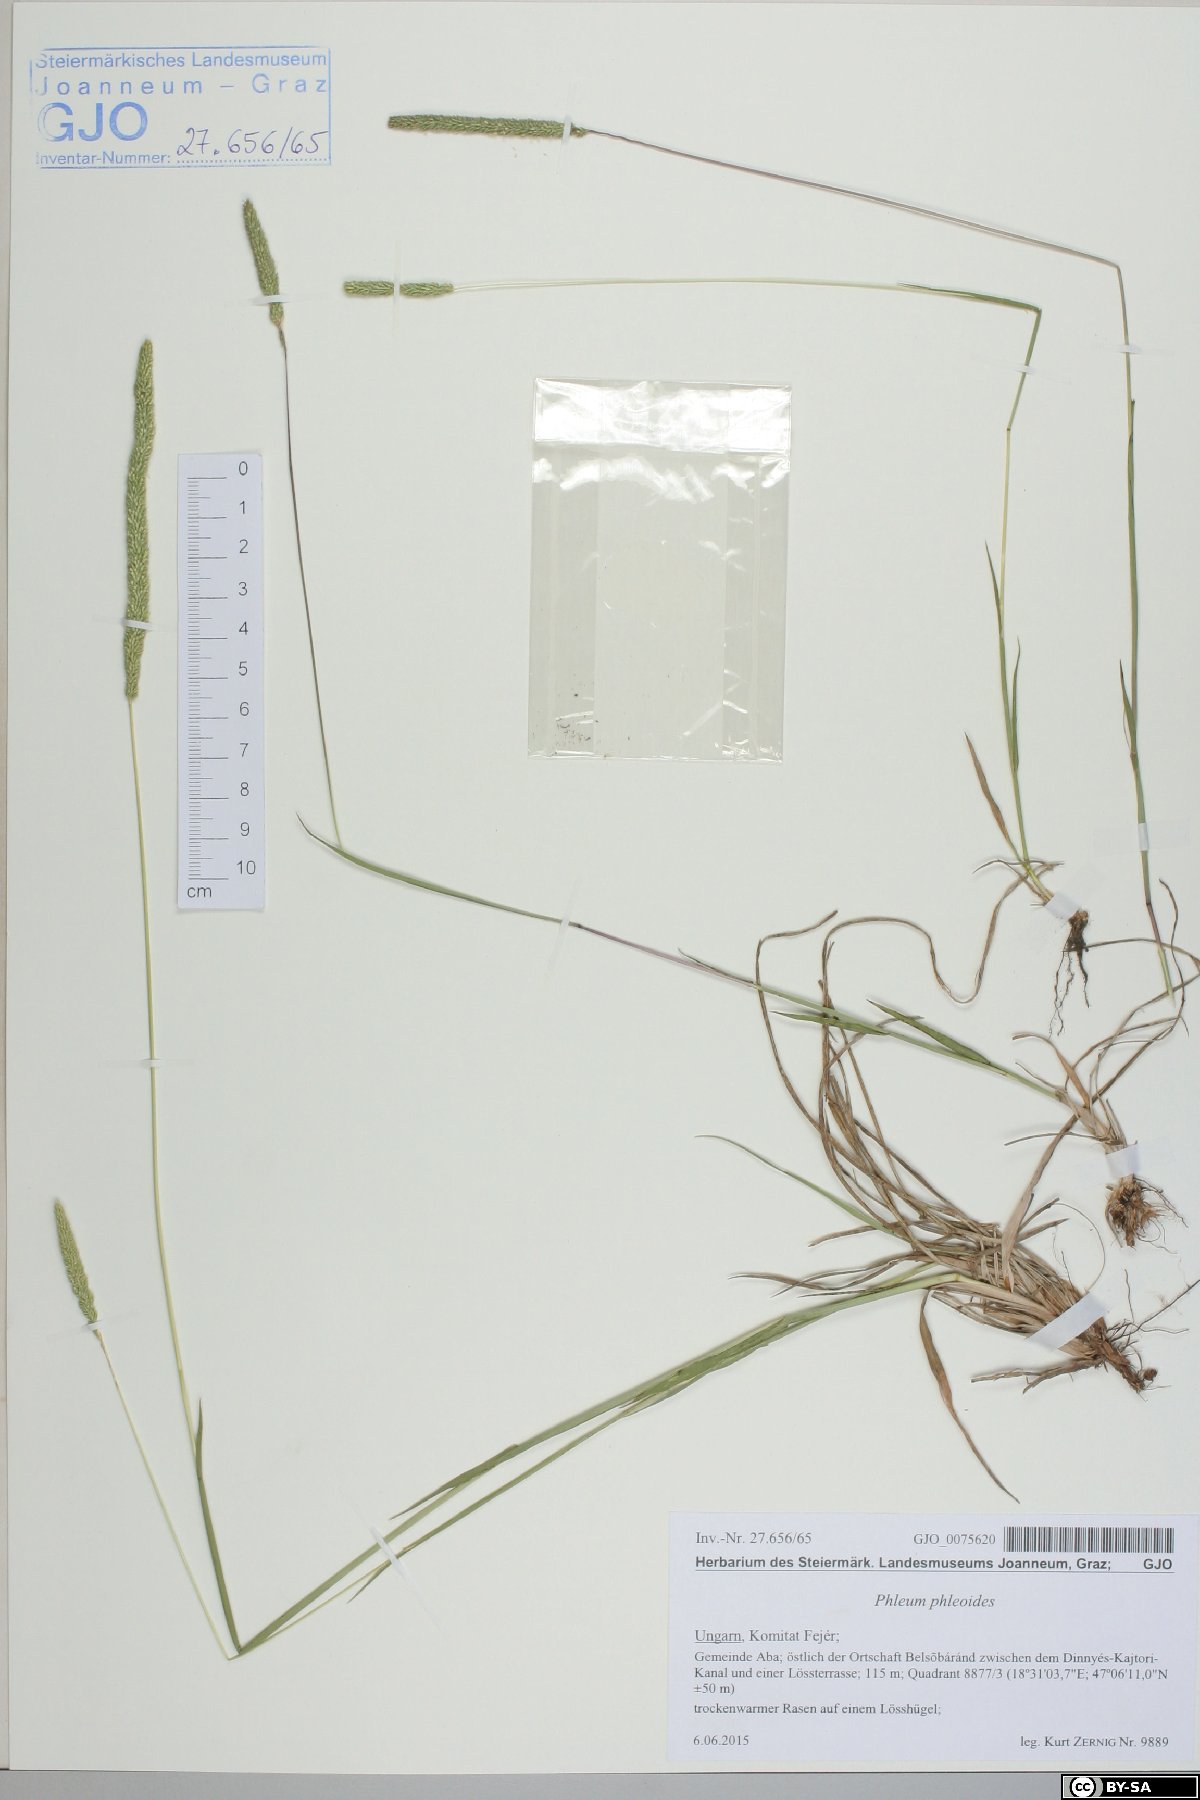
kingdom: Plantae
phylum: Tracheophyta
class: Liliopsida
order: Poales
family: Poaceae
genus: Phleum
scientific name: Phleum phleoides
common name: Purple-stem cat's-tail
